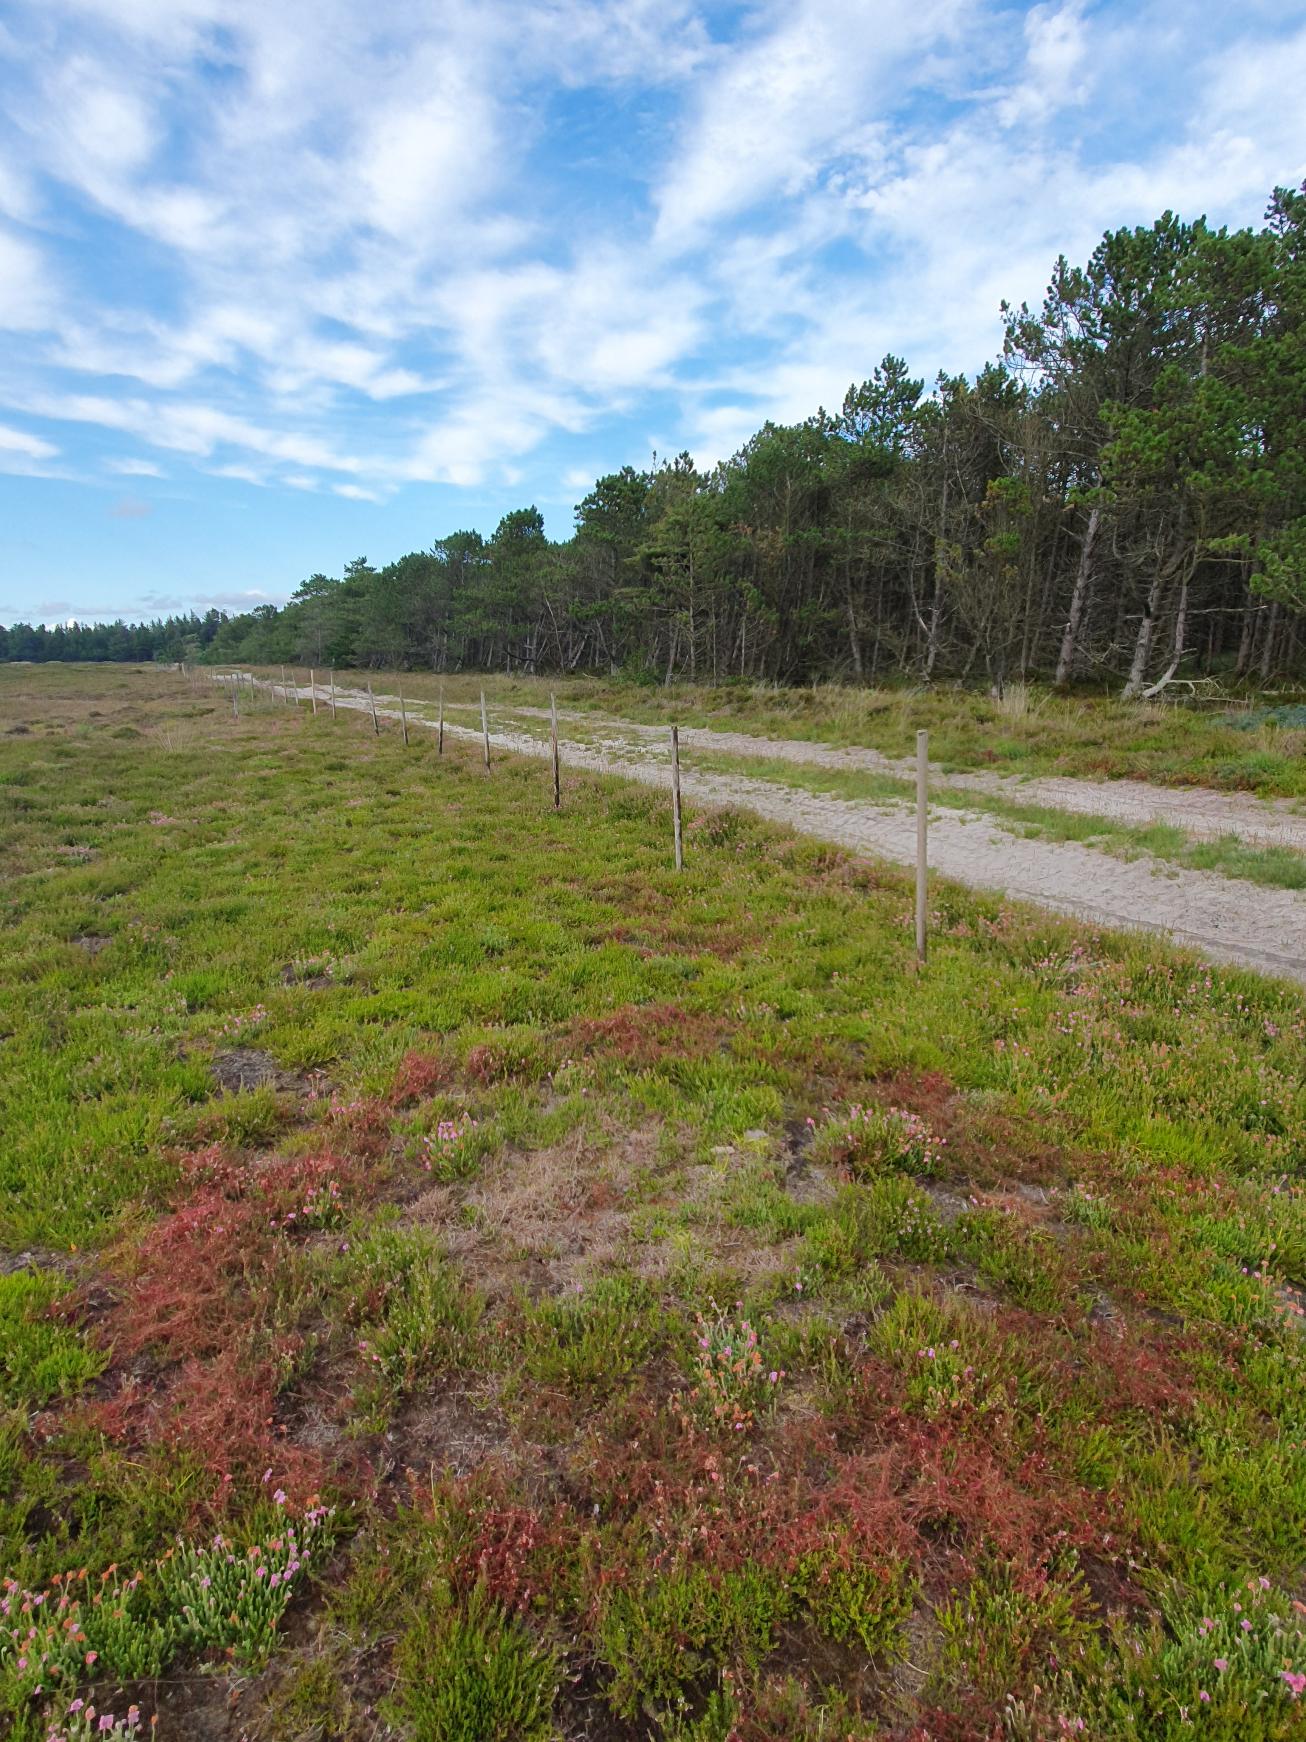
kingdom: Plantae
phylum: Tracheophyta
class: Magnoliopsida
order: Solanales
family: Convolvulaceae
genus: Cuscuta
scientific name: Cuscuta epithymum
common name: Lyng-silke
